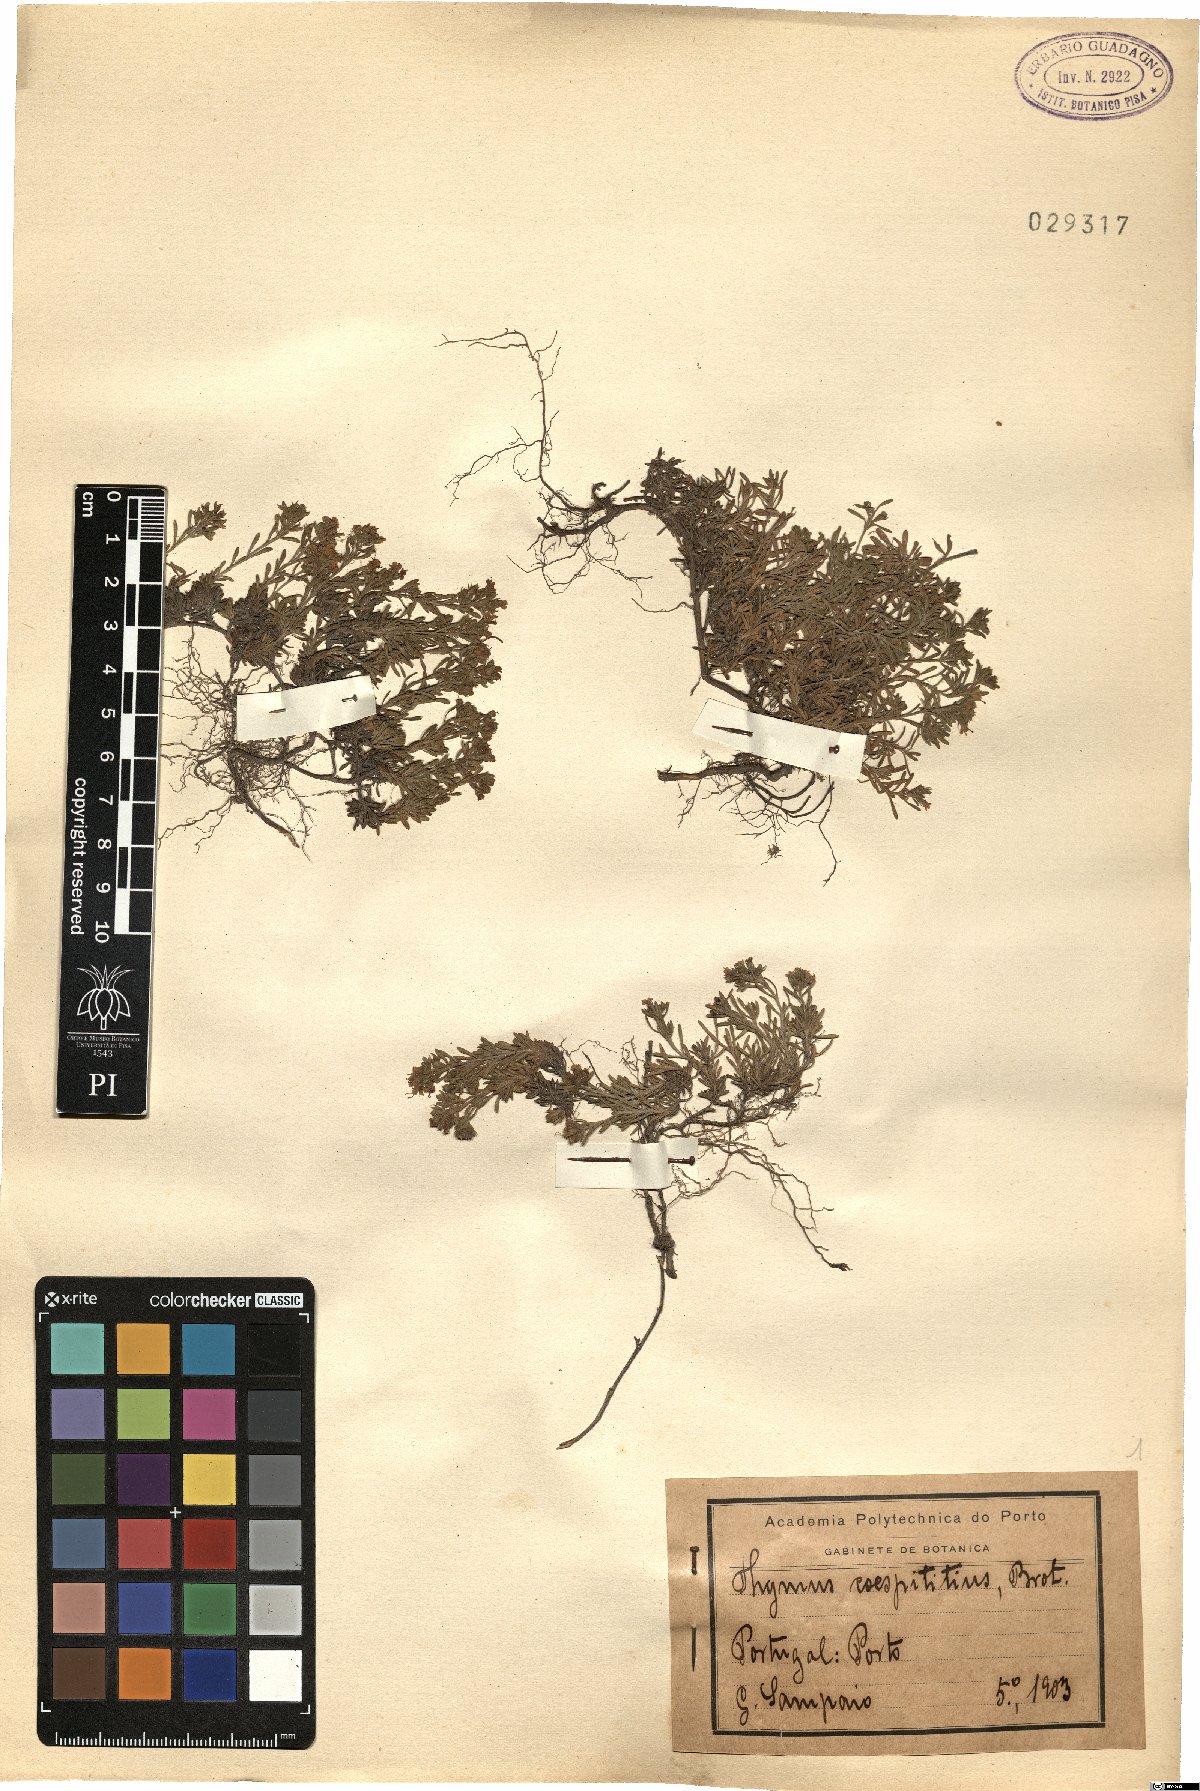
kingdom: Plantae
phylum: Tracheophyta
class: Magnoliopsida
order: Lamiales
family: Lamiaceae
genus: Thymus
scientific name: Thymus caespititius
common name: Azores thyme
